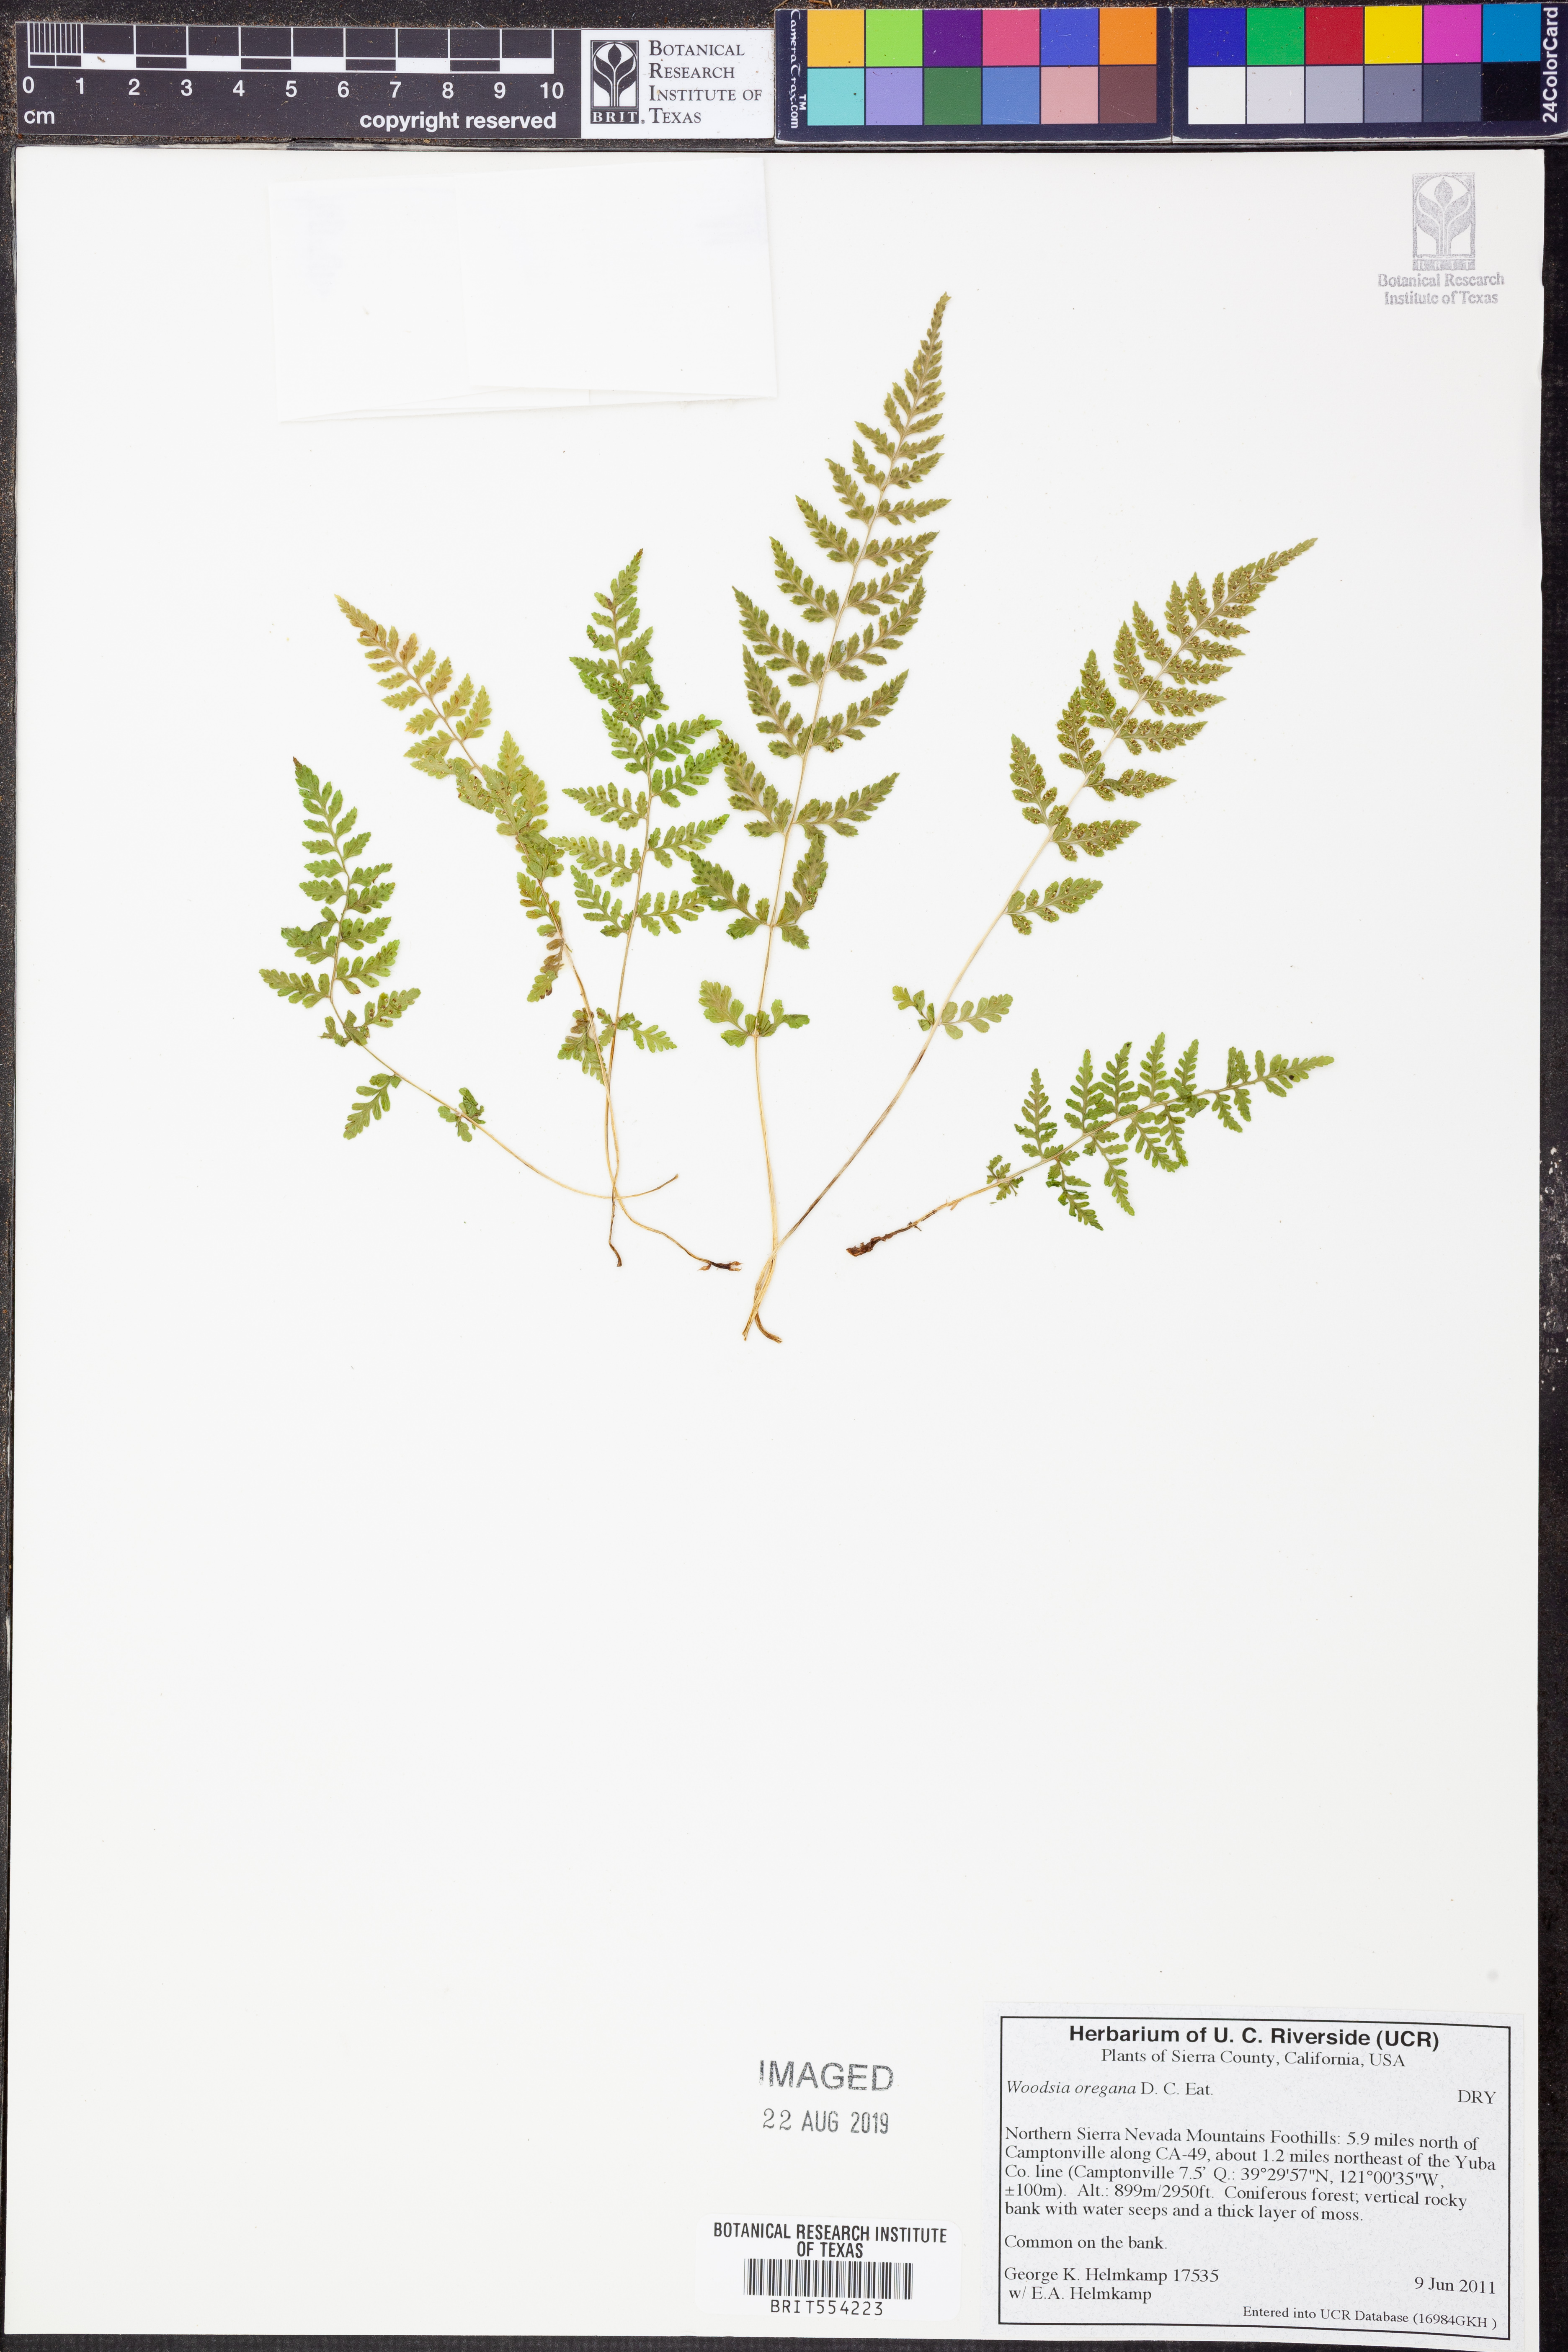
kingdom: Plantae
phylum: Tracheophyta
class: Polypodiopsida
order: Polypodiales
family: Woodsiaceae
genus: Physematium
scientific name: Physematium oreganum
